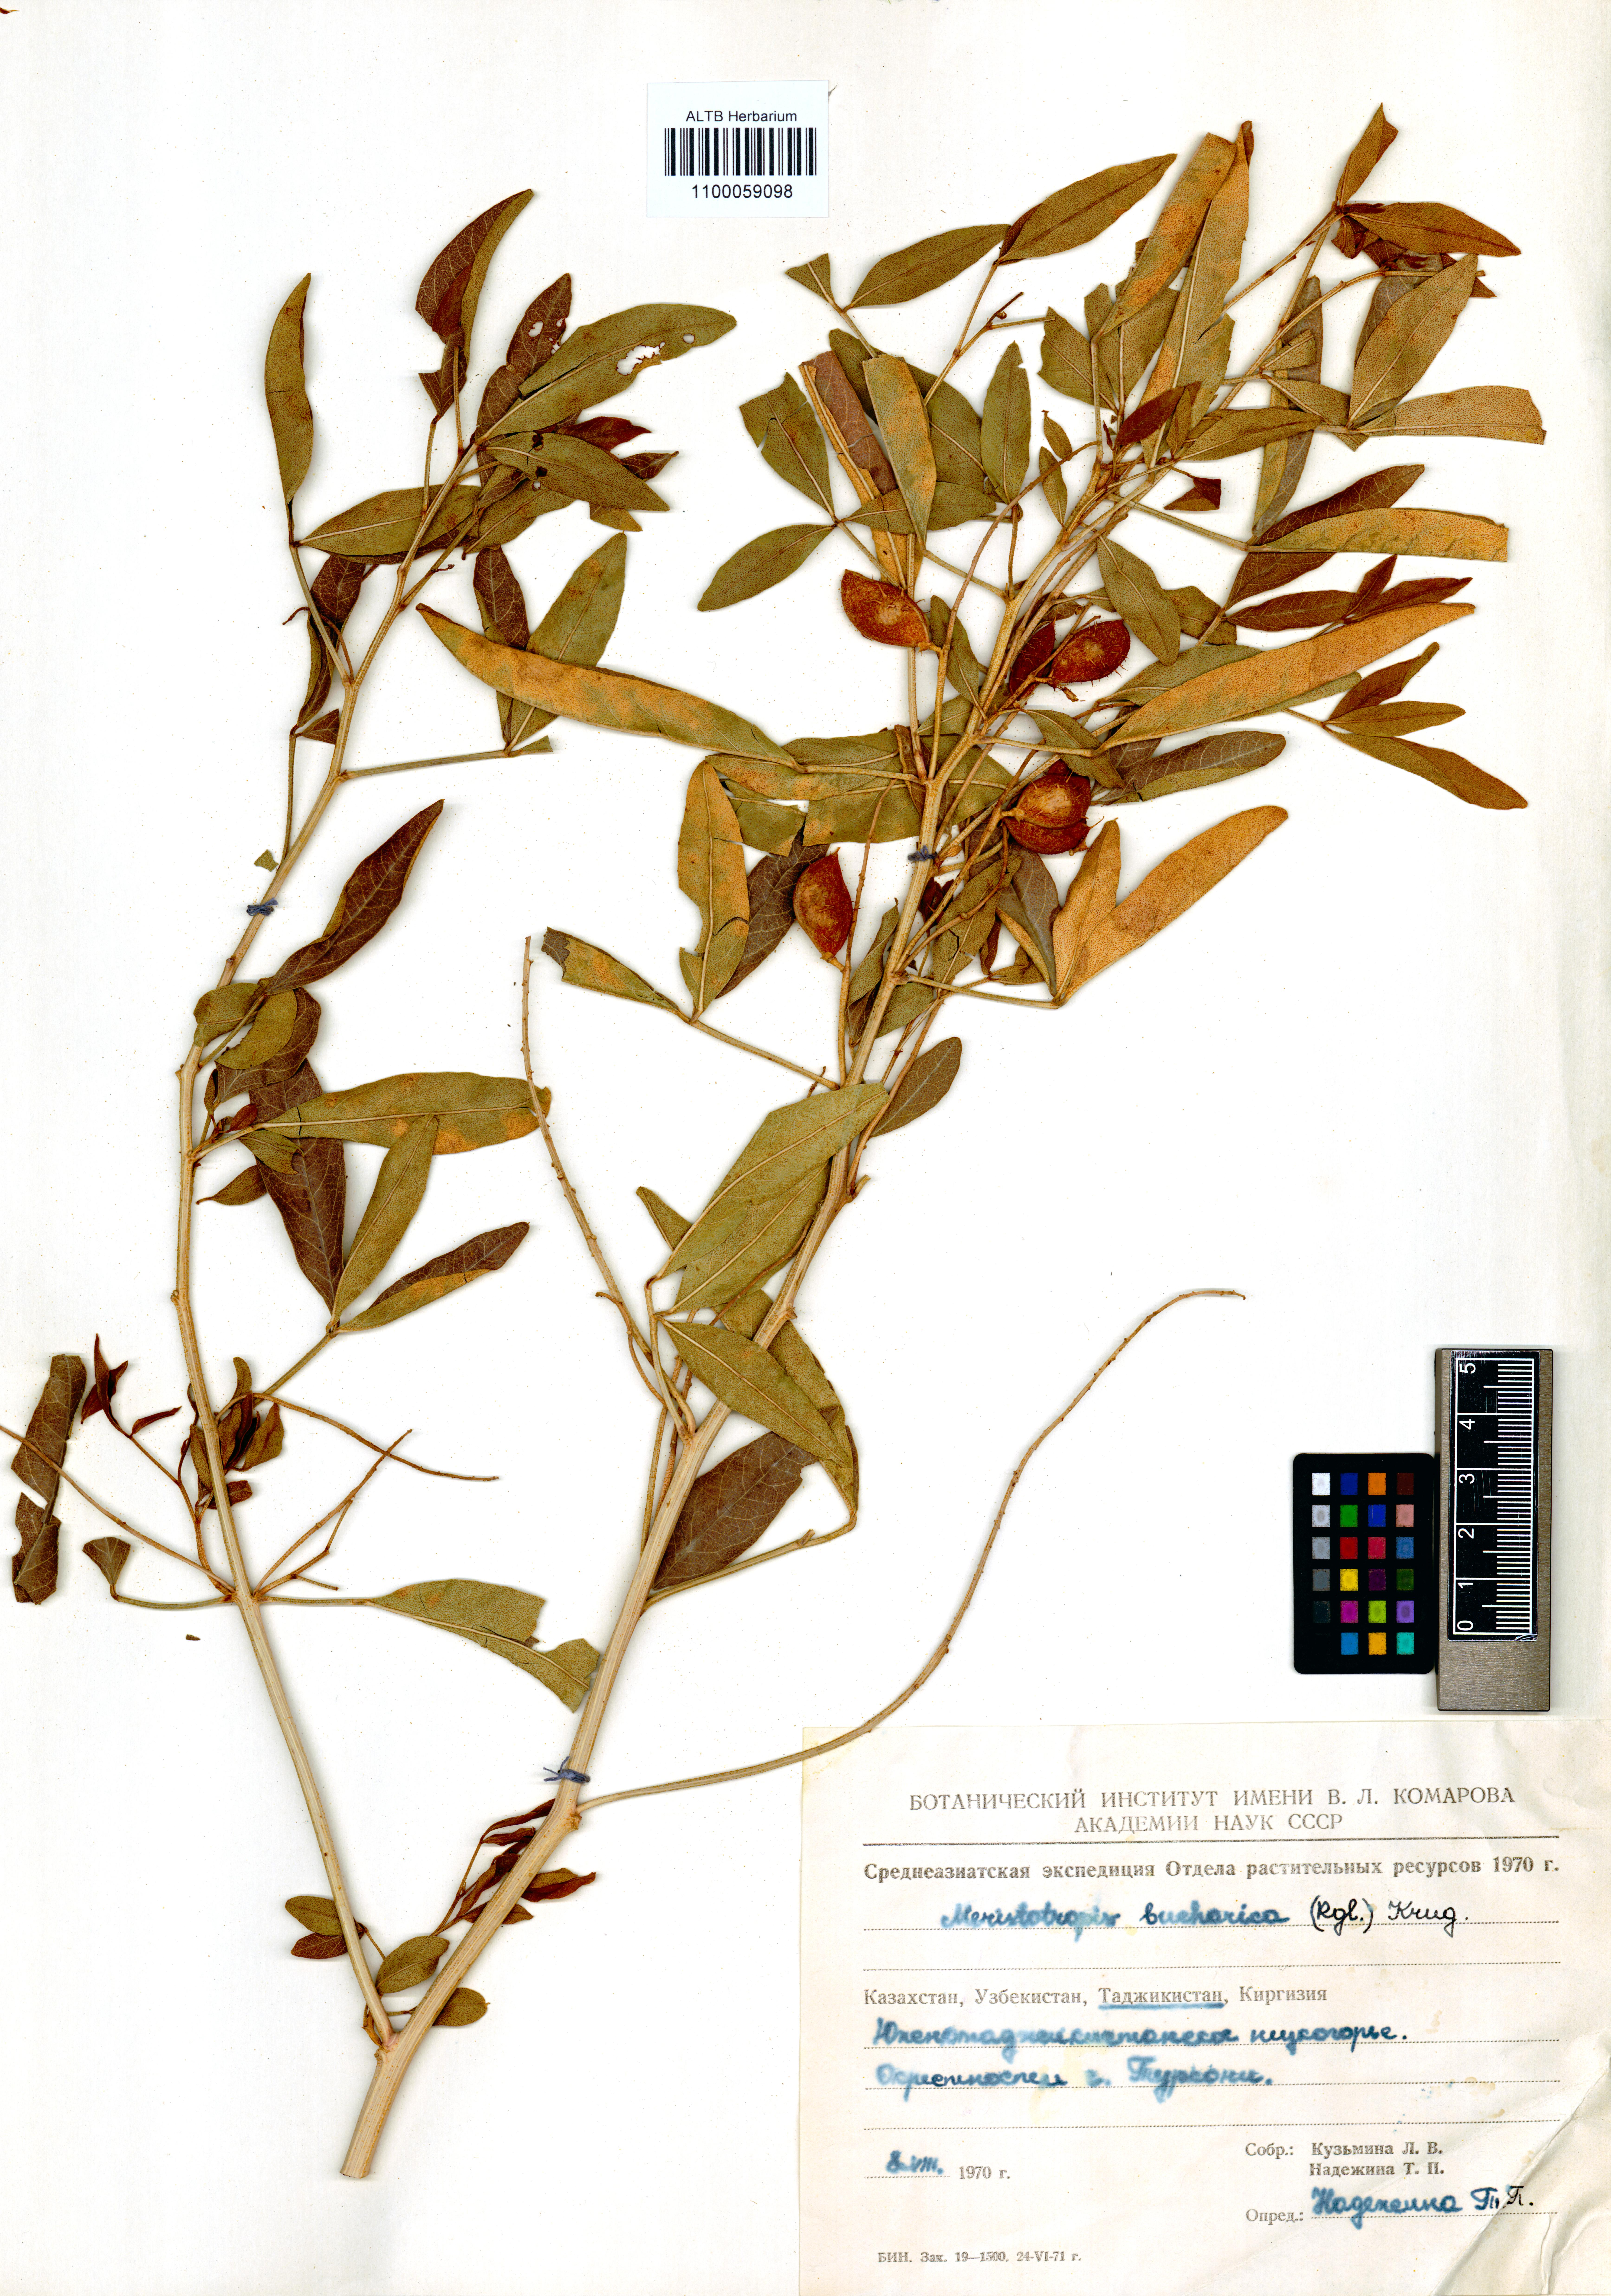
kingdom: Plantae
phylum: Tracheophyta
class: Magnoliopsida
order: Fabales
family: Fabaceae
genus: Glycyrrhiza
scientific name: Glycyrrhiza bucharica
